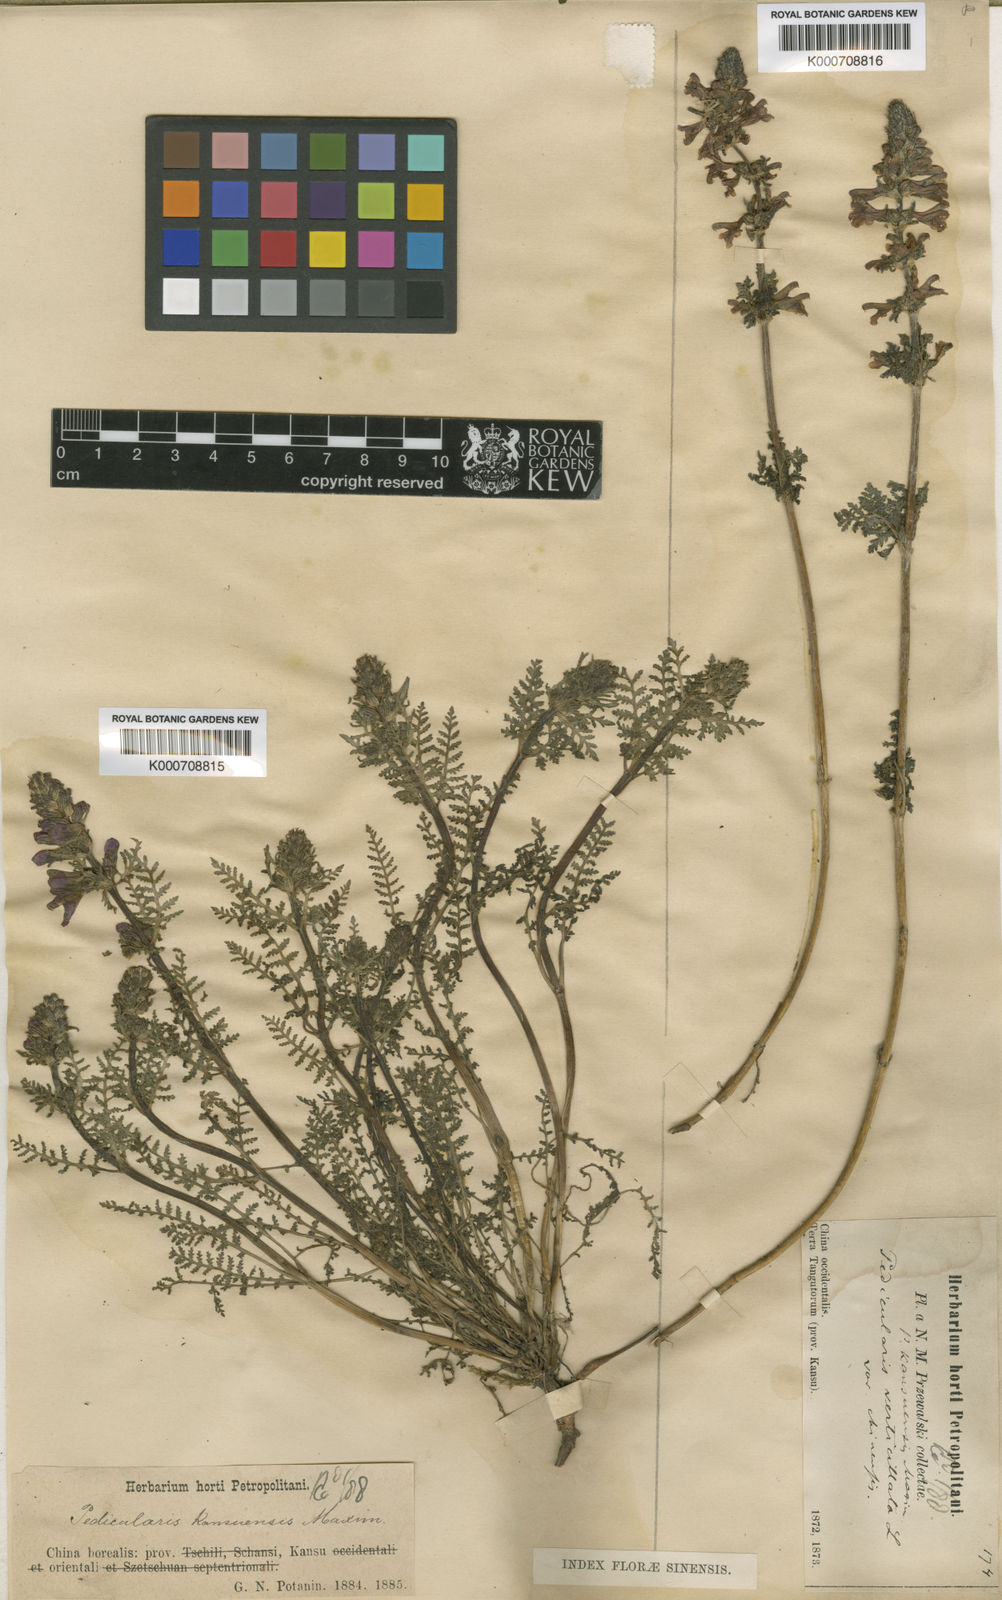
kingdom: Plantae
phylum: Tracheophyta
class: Magnoliopsida
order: Lamiales
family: Orobanchaceae
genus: Pedicularis
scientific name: Pedicularis kansuensis
